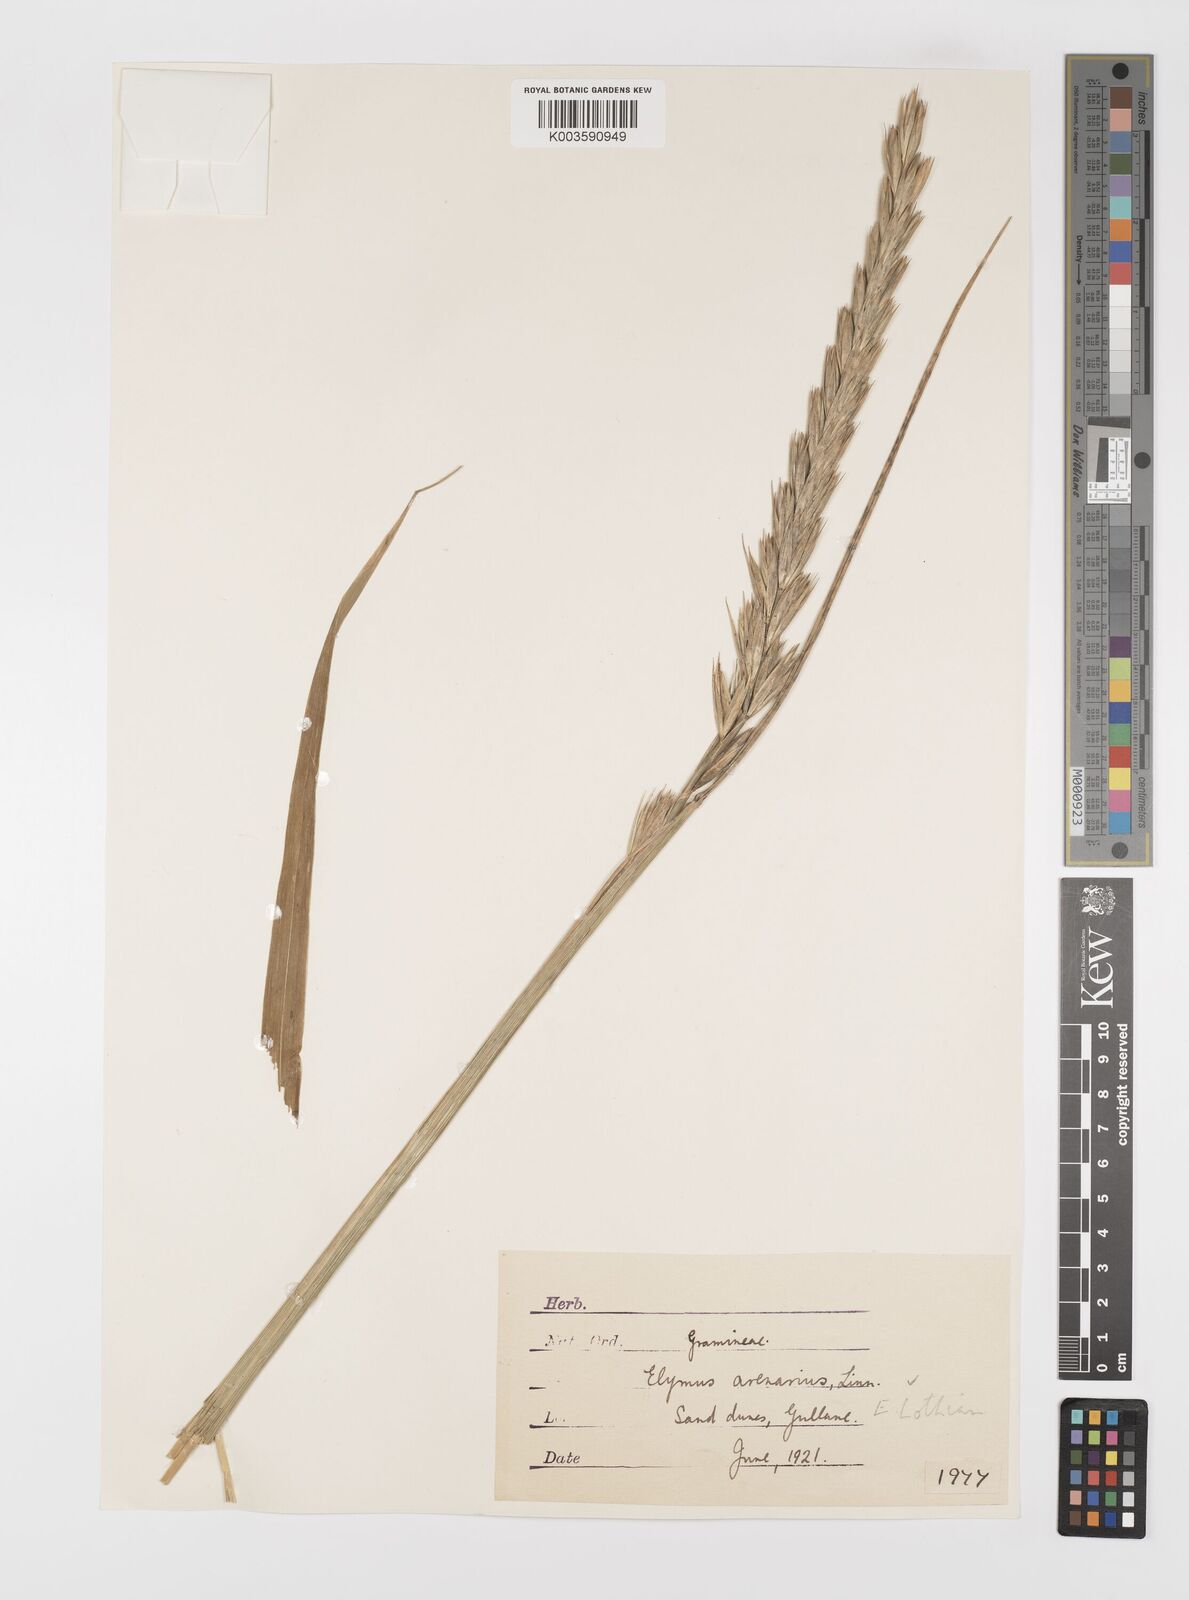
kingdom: Plantae
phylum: Tracheophyta
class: Liliopsida
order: Poales
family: Poaceae
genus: Leymus
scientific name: Leymus arenarius
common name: Lyme-grass
